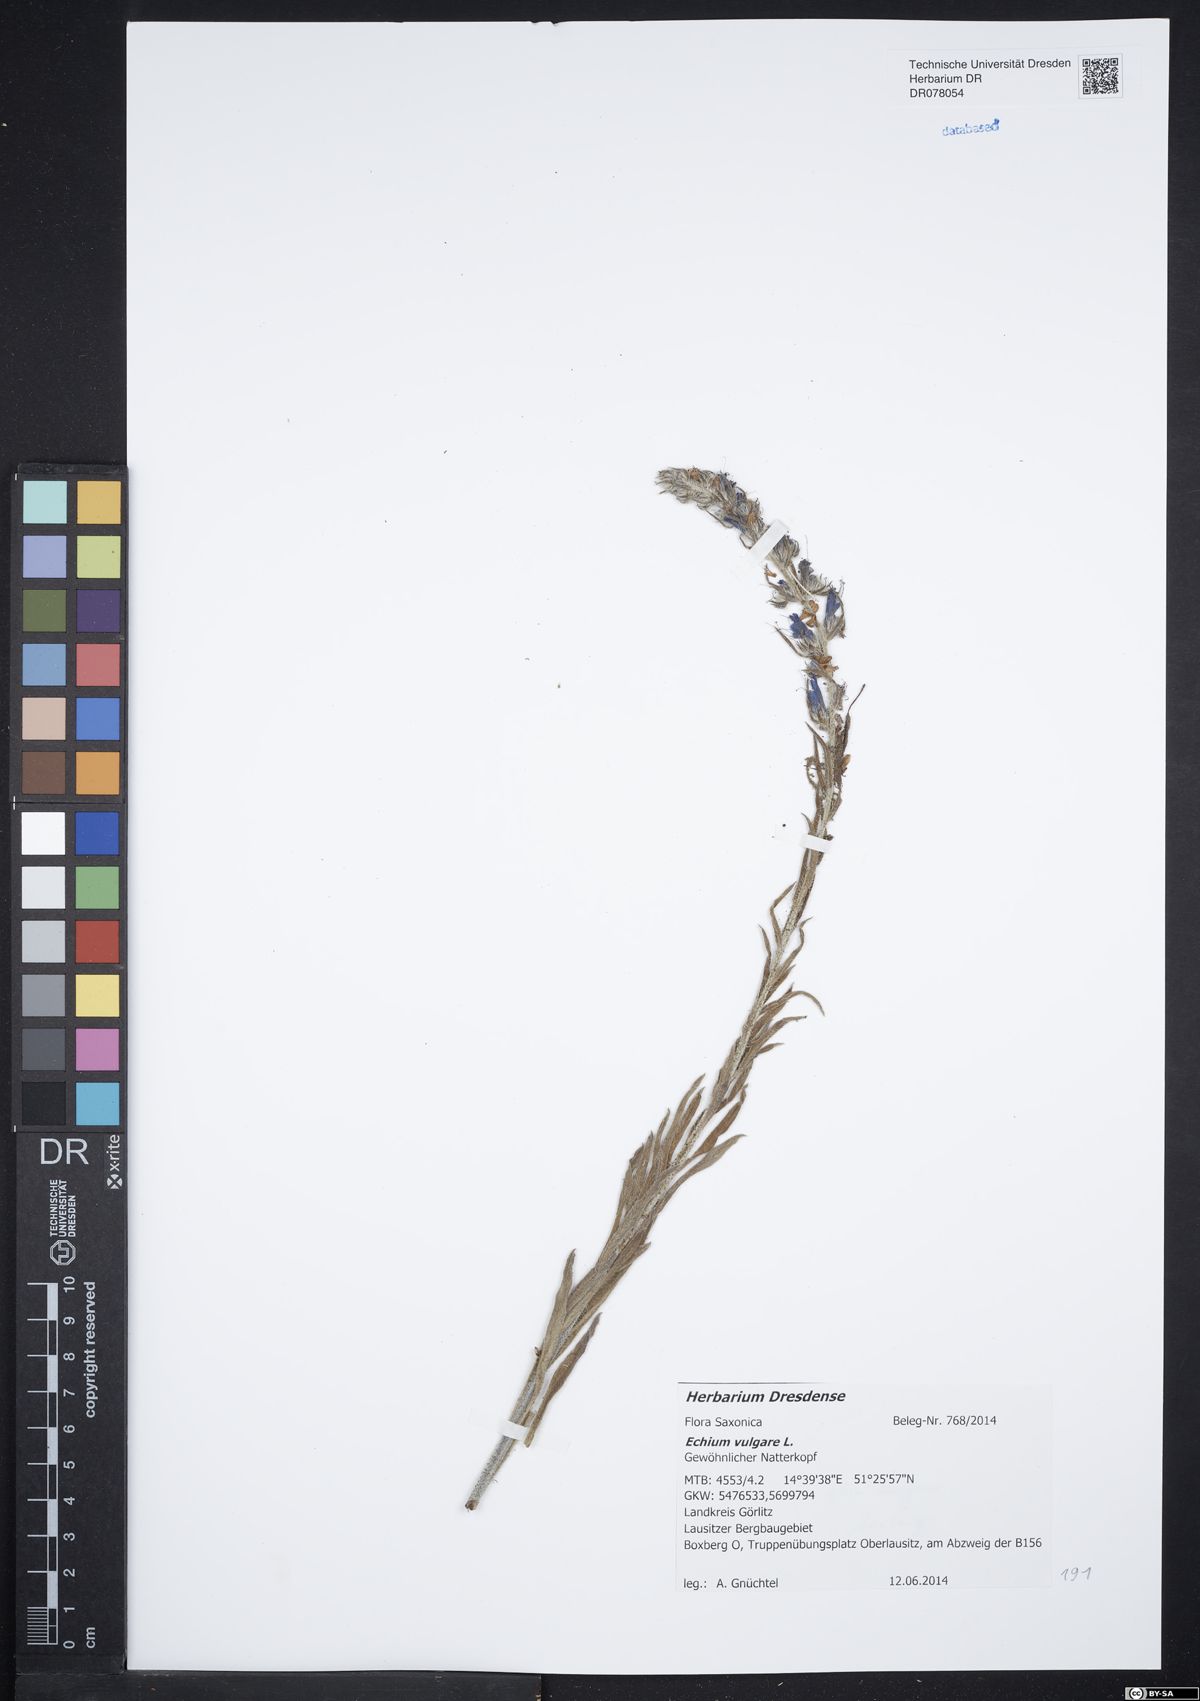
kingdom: Plantae
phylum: Tracheophyta
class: Magnoliopsida
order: Boraginales
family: Boraginaceae
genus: Echium
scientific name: Echium vulgare
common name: Common viper's bugloss
